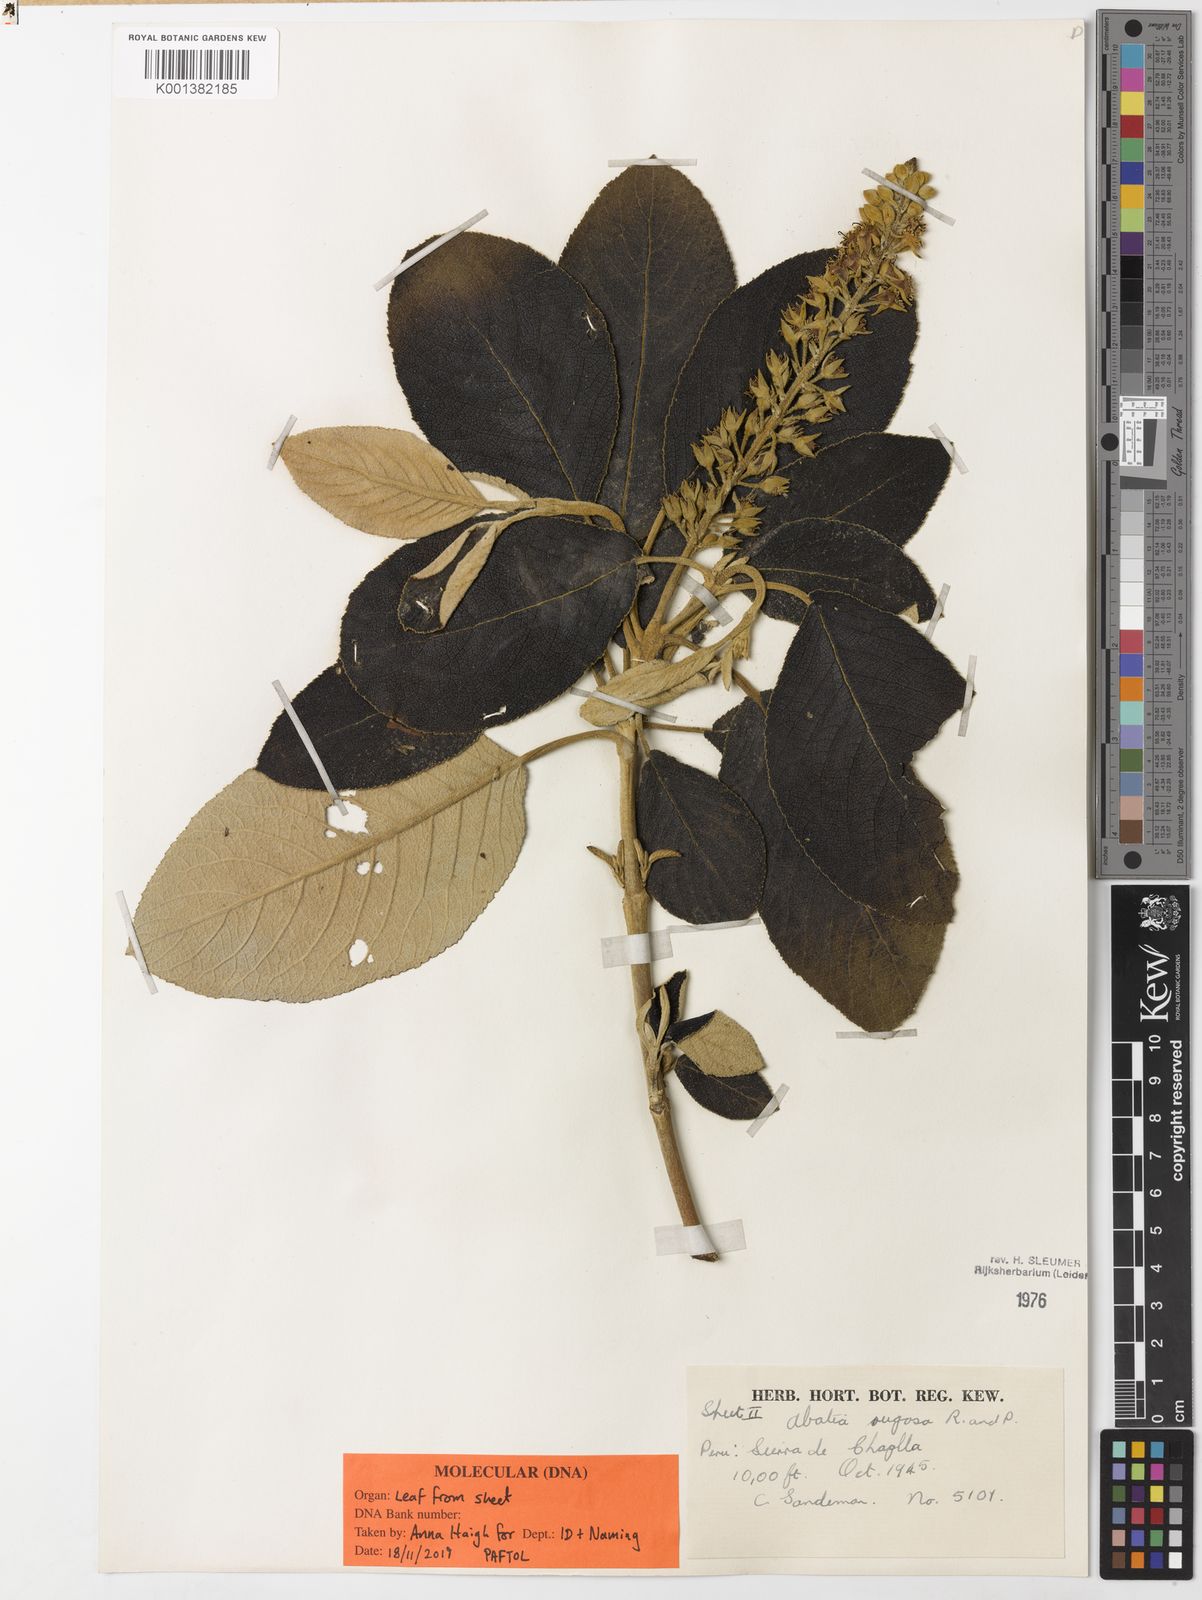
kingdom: Plantae
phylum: Tracheophyta
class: Magnoliopsida
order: Malpighiales
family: Salicaceae
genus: Abatia
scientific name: Abatia rugosa
